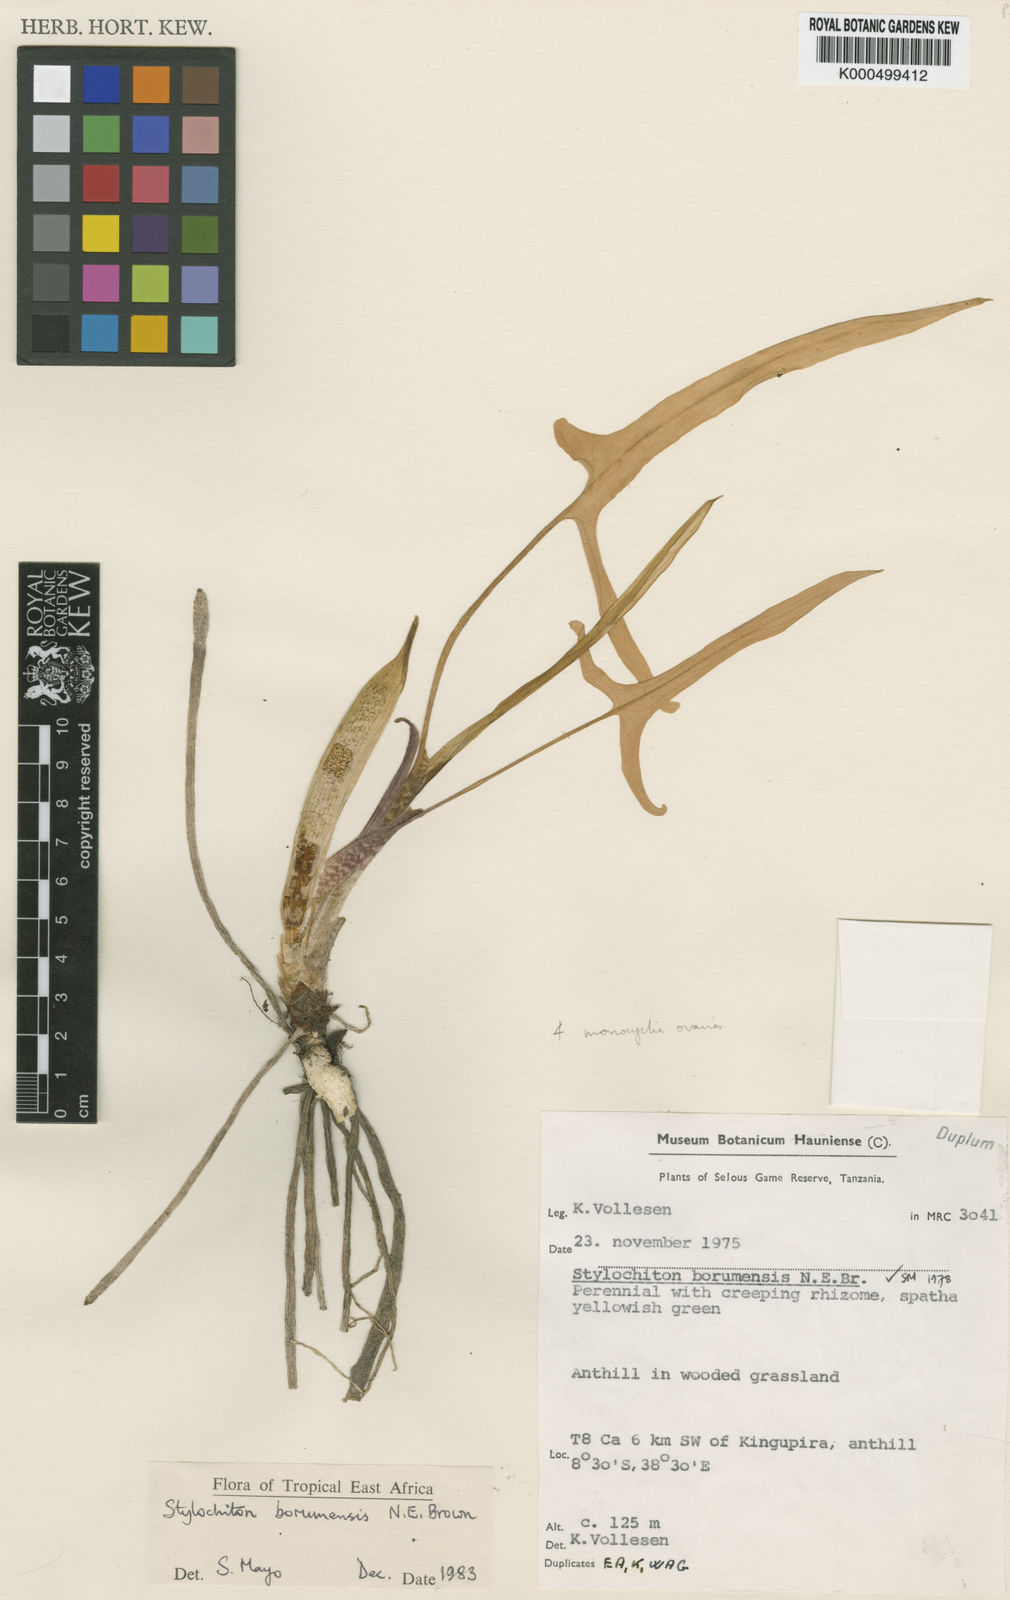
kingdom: Plantae
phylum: Tracheophyta
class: Liliopsida
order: Alismatales
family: Araceae
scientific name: Araceae
